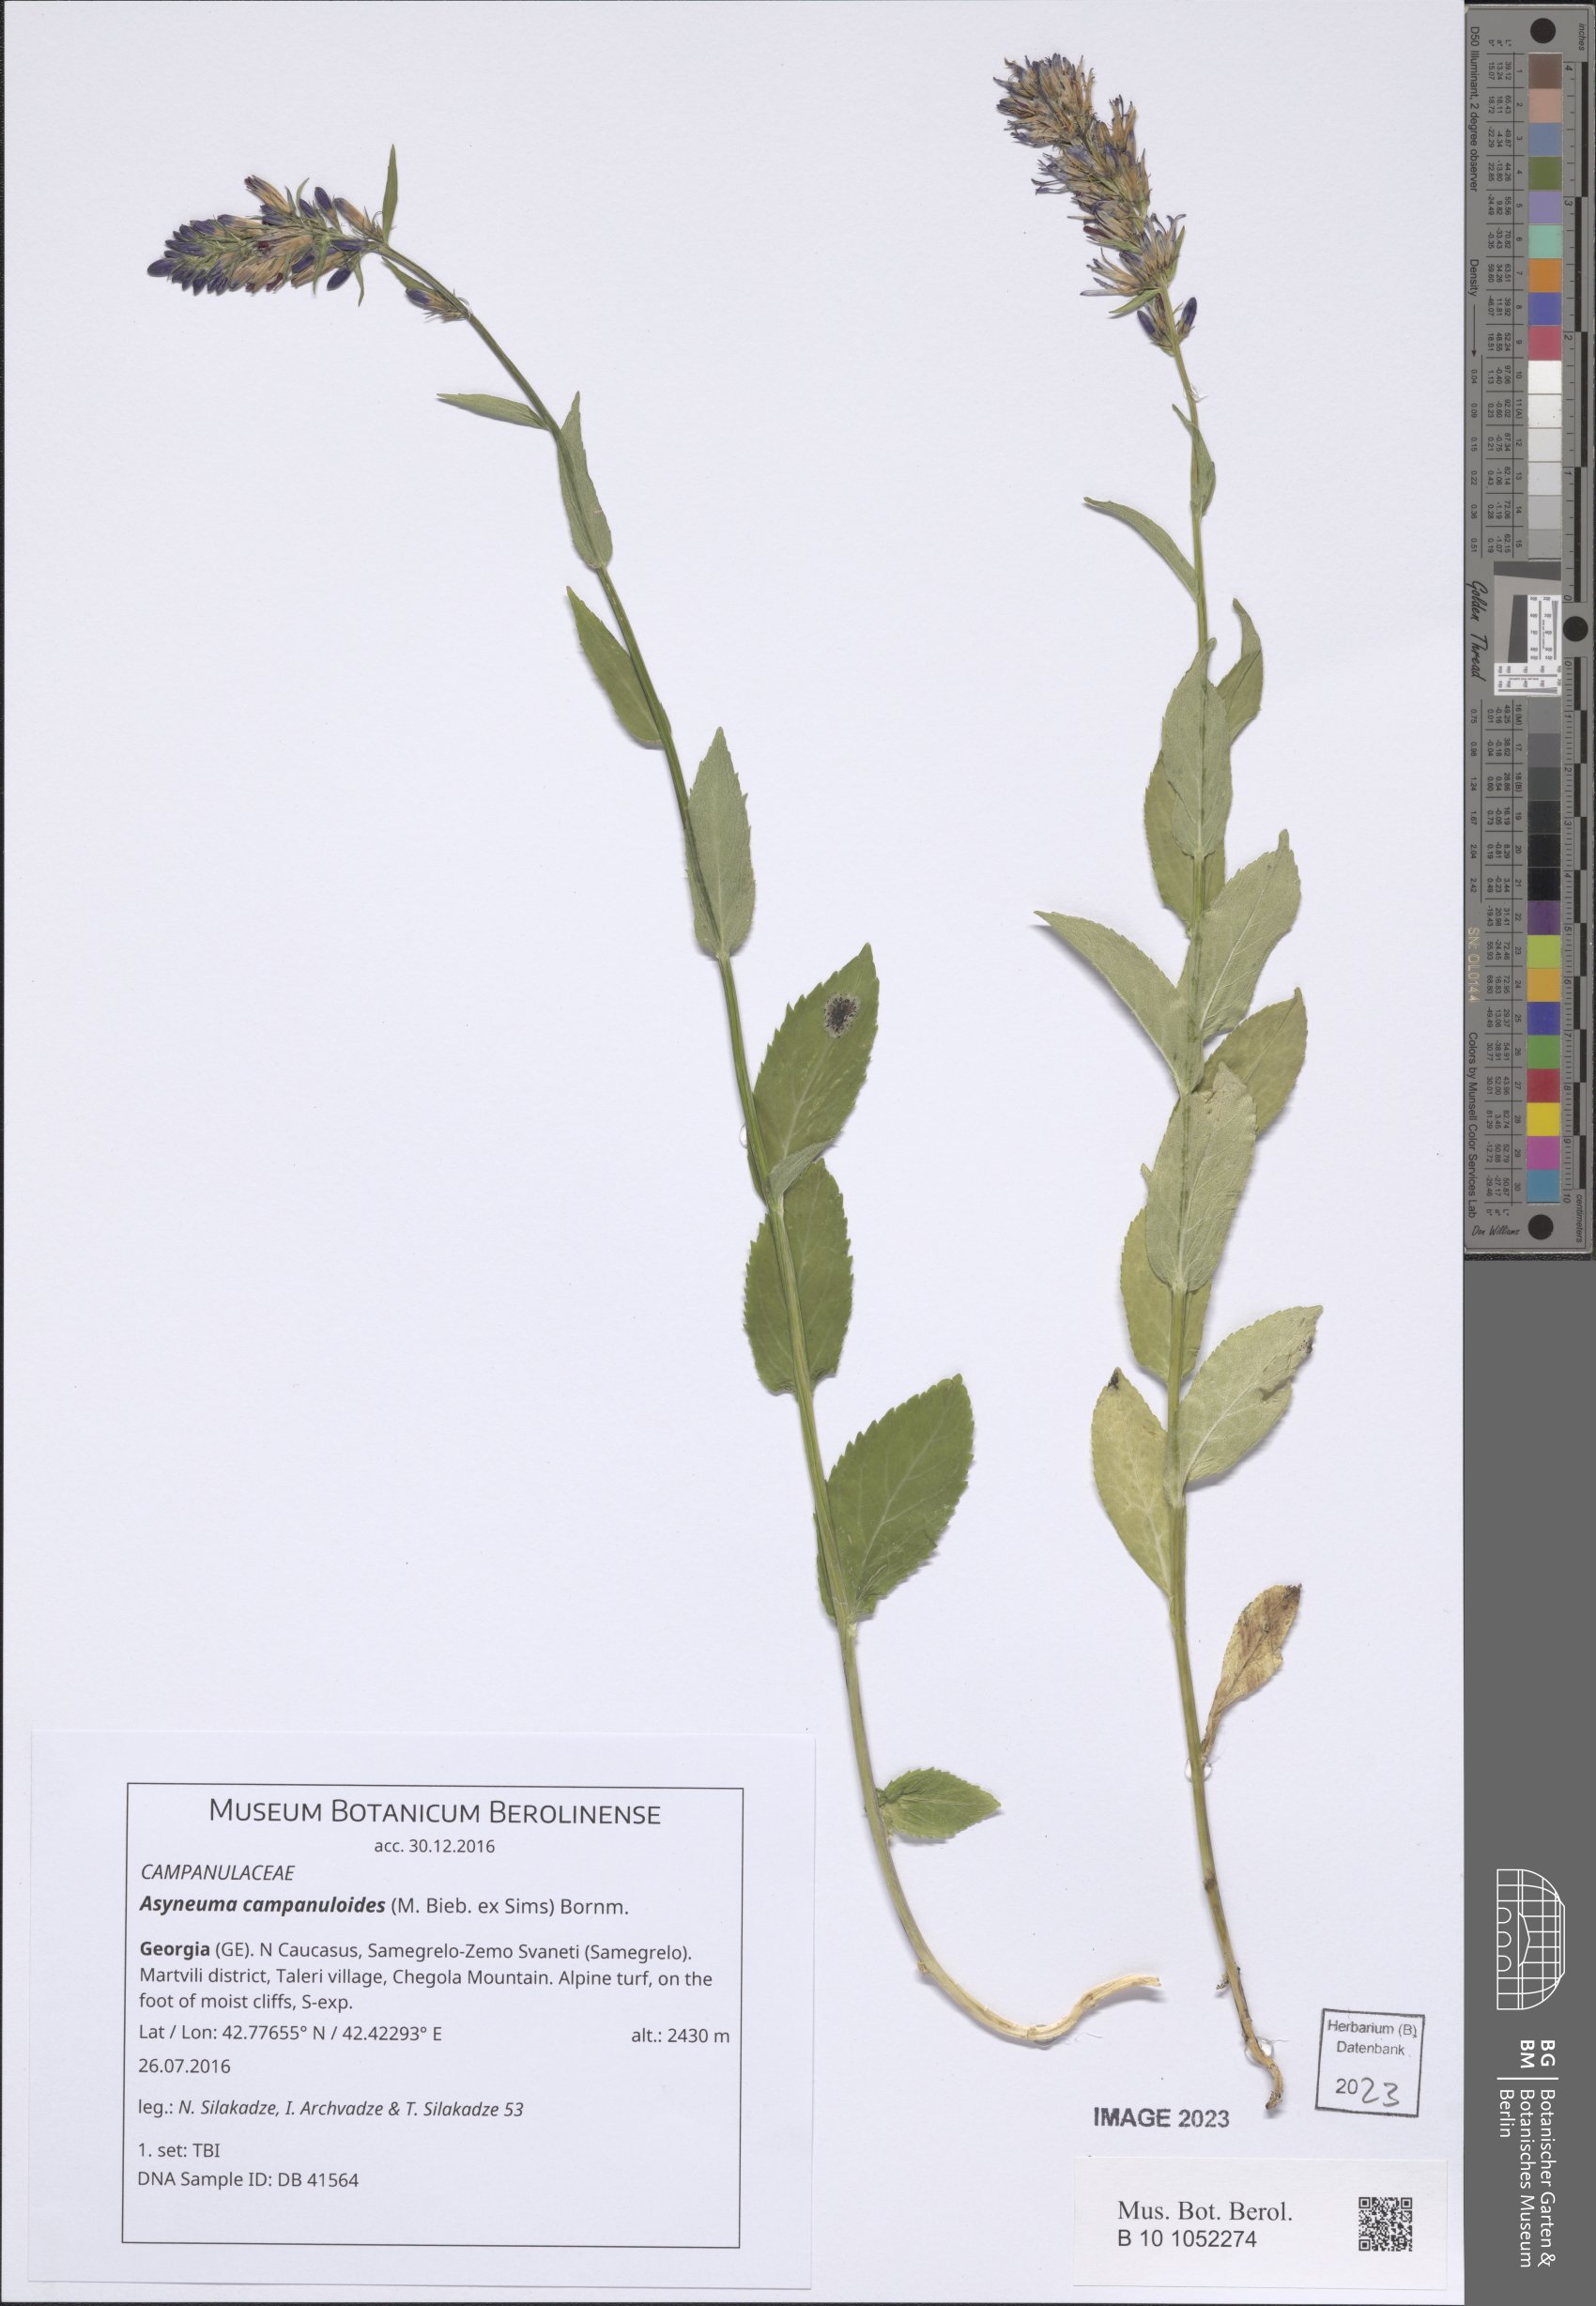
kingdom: Plantae
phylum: Tracheophyta
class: Magnoliopsida
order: Asterales
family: Campanulaceae
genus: Asyneuma
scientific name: Asyneuma campanuloides
